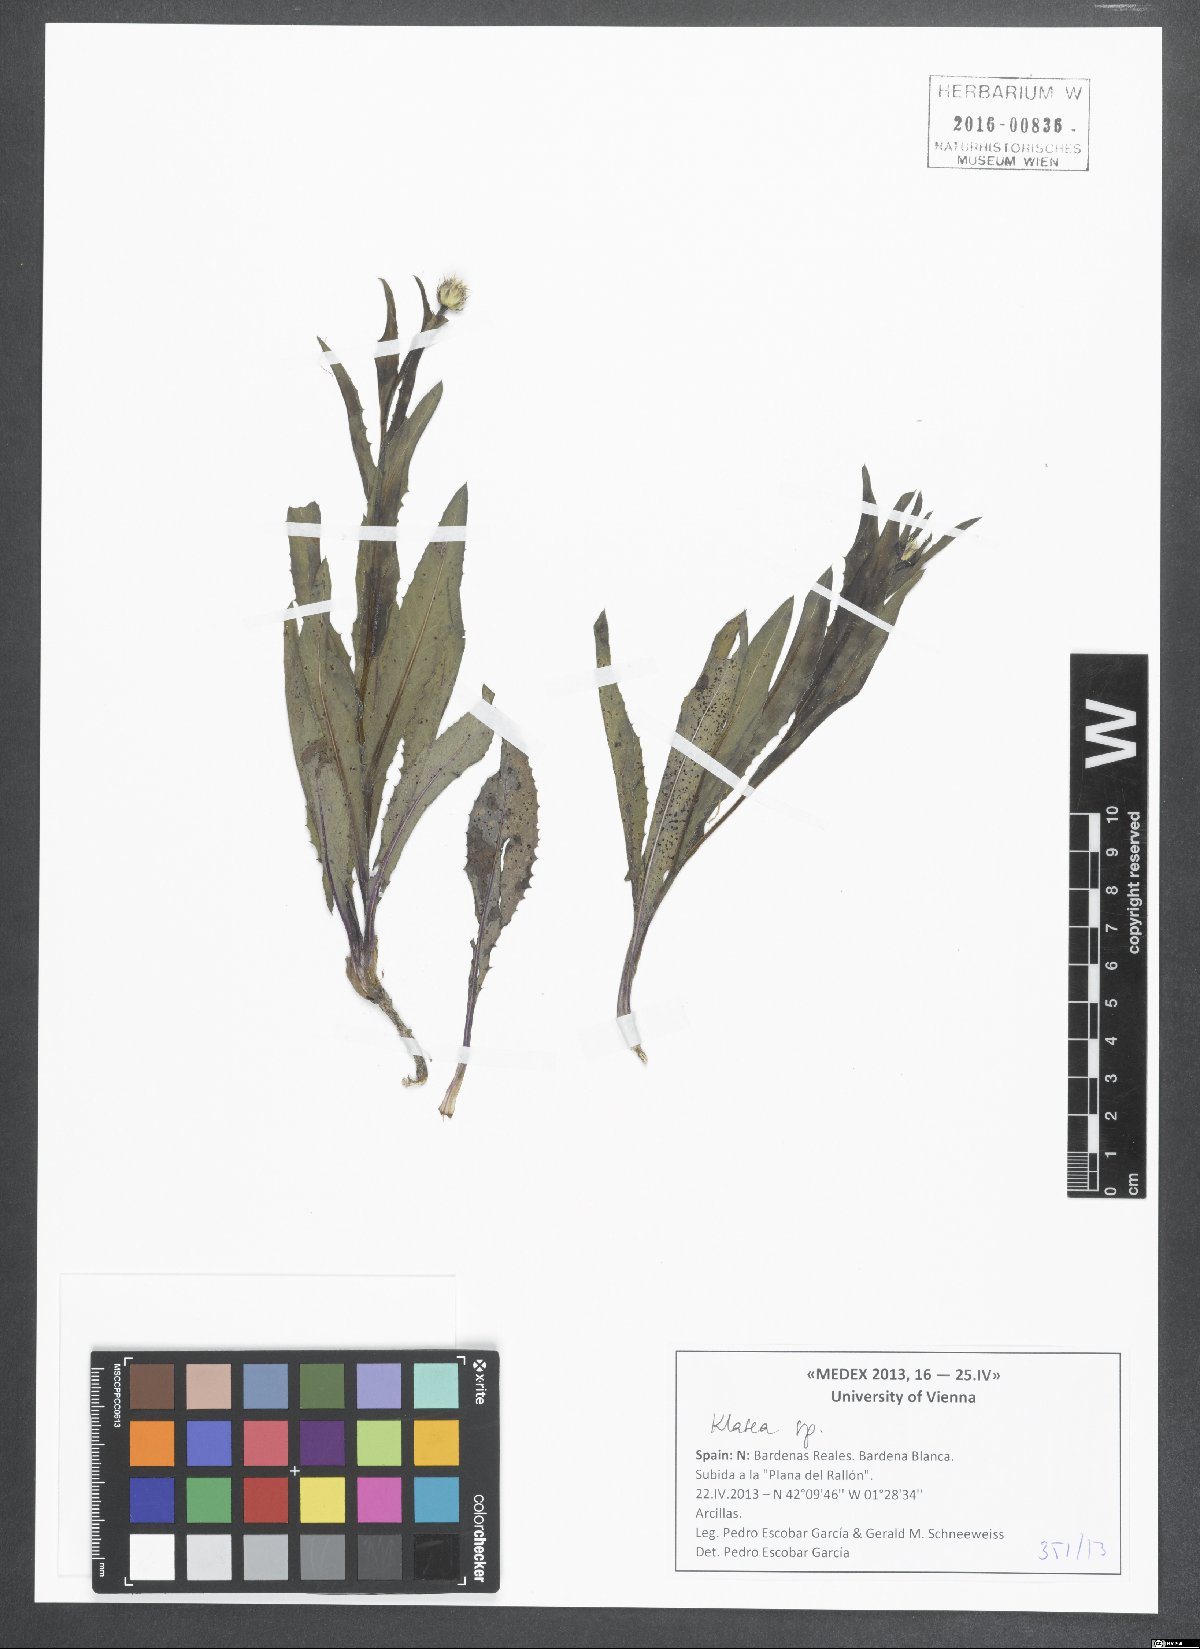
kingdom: Plantae
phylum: Tracheophyta
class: Magnoliopsida
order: Asterales
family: Asteraceae
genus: Klasea
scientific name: Klasea
